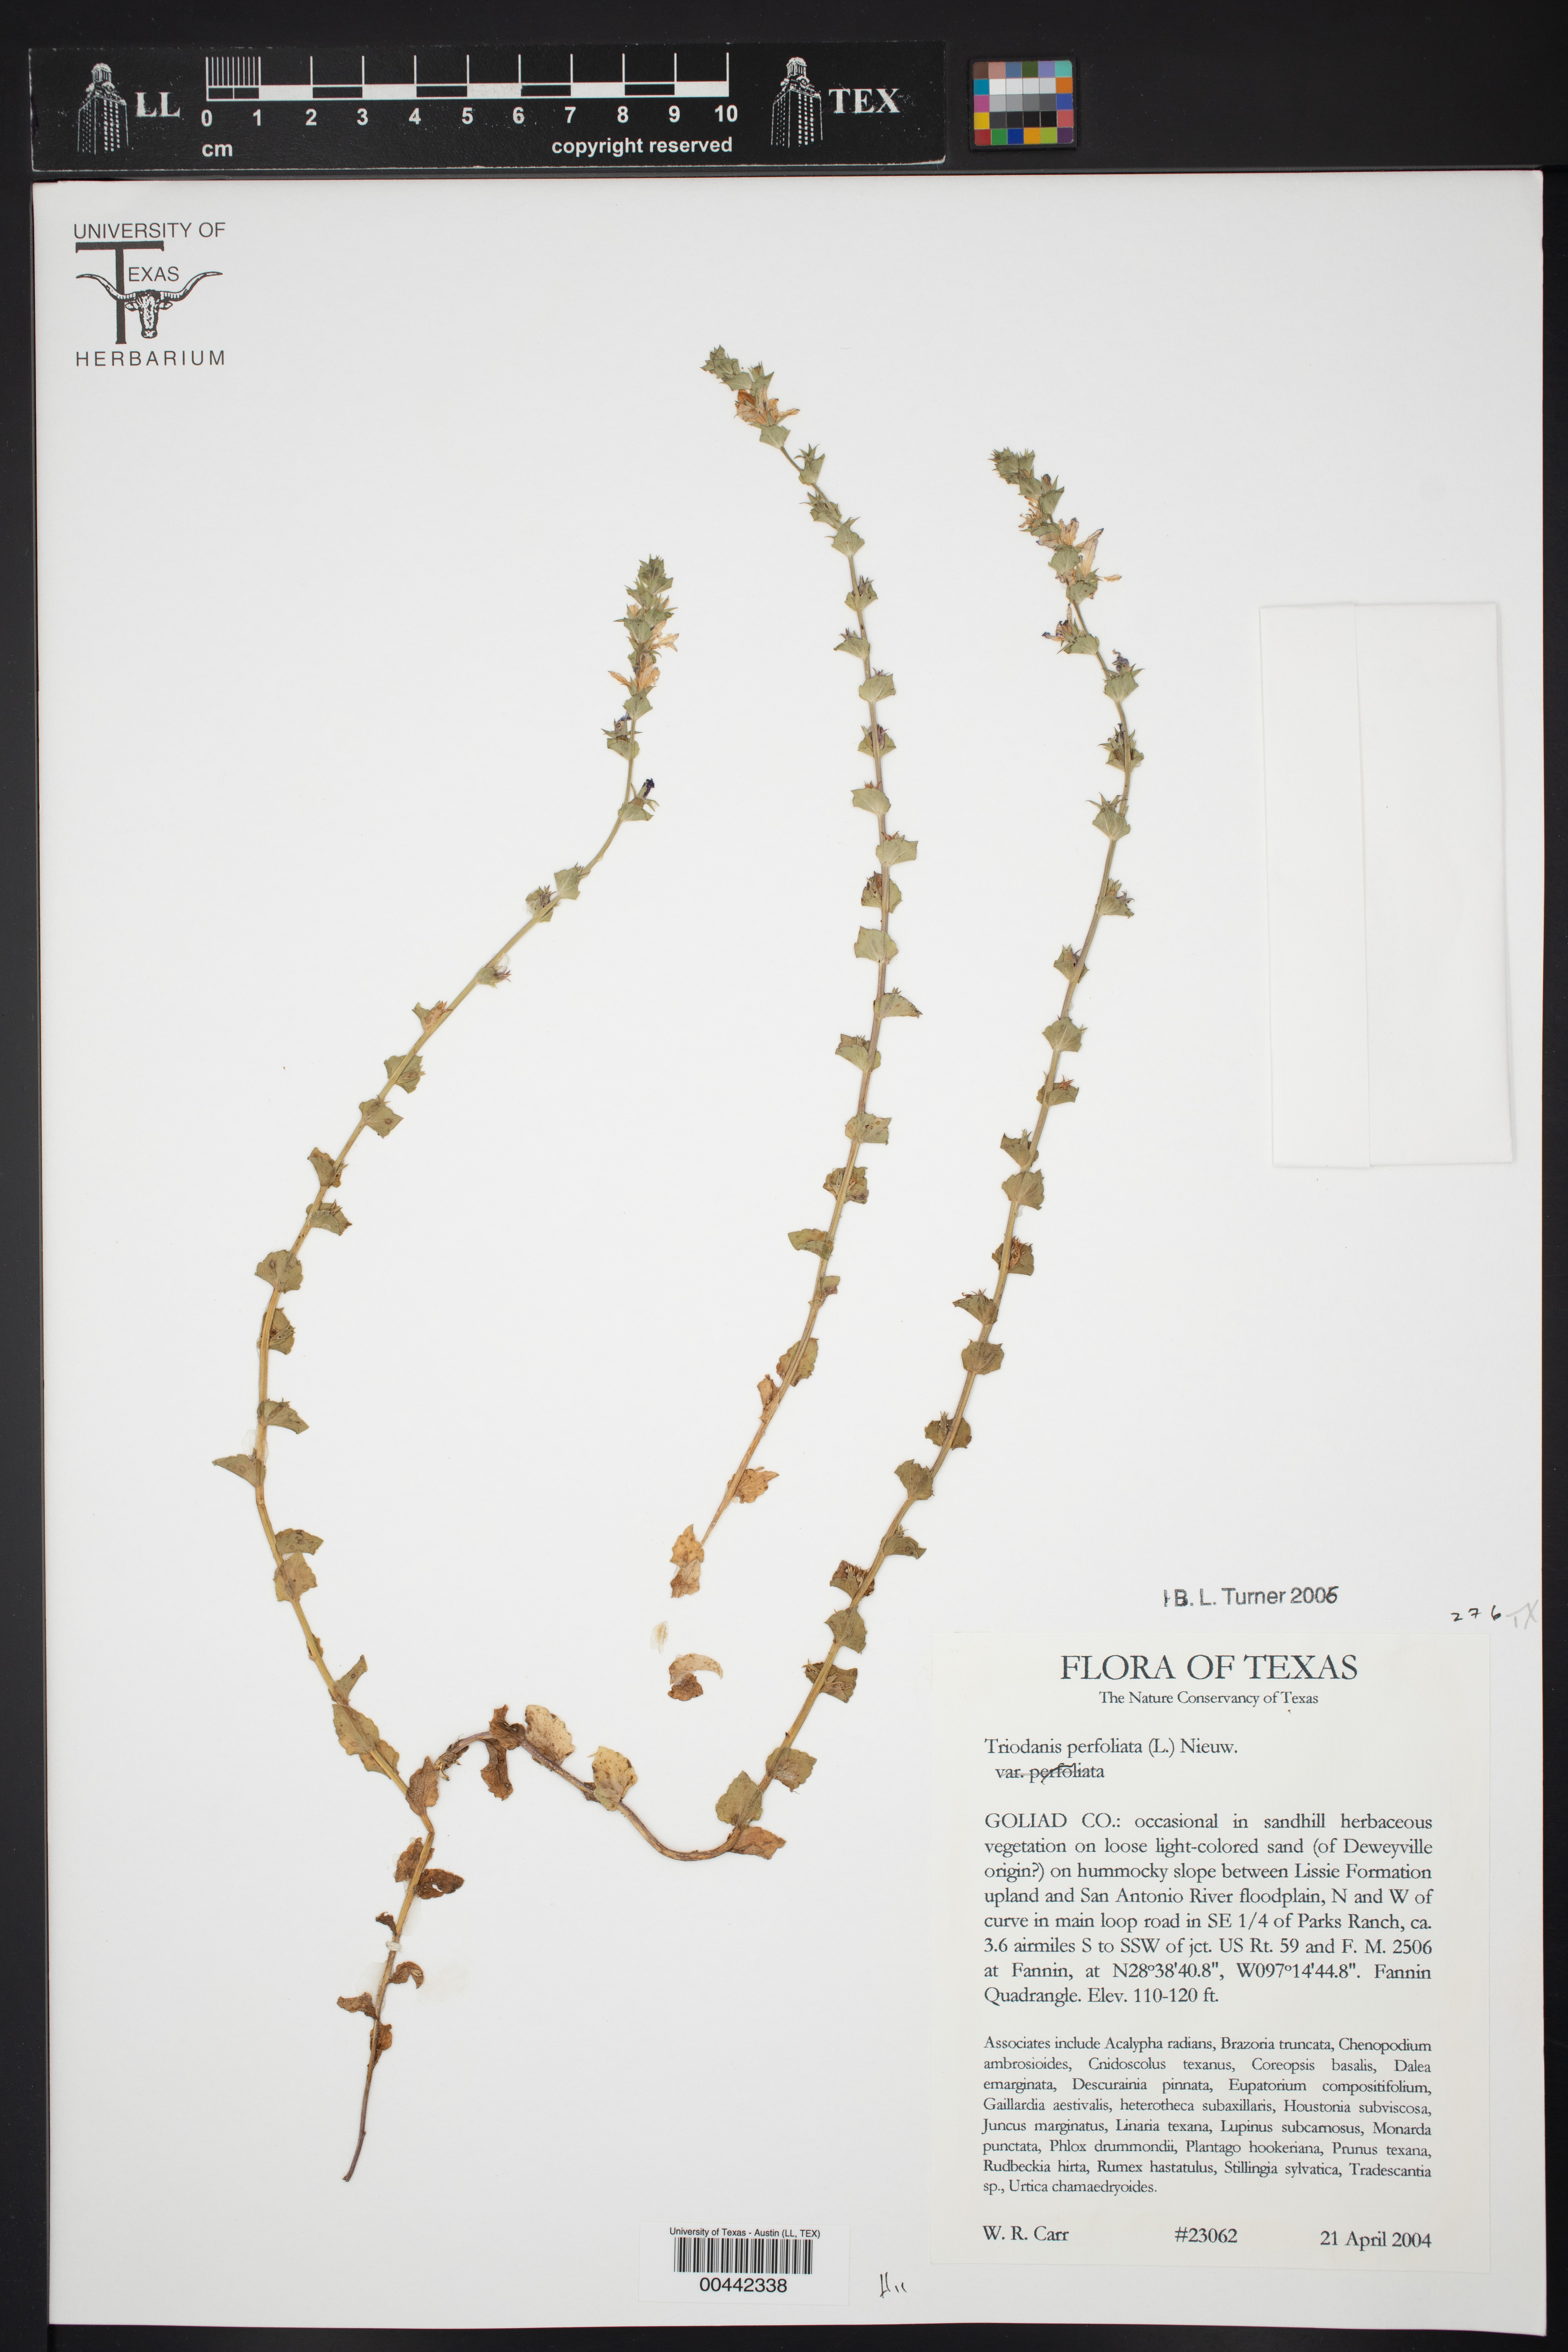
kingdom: Plantae
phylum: Tracheophyta
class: Magnoliopsida
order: Asterales
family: Campanulaceae
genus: Triodanis
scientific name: Triodanis perfoliata
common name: Clasping venus' looking-glass
